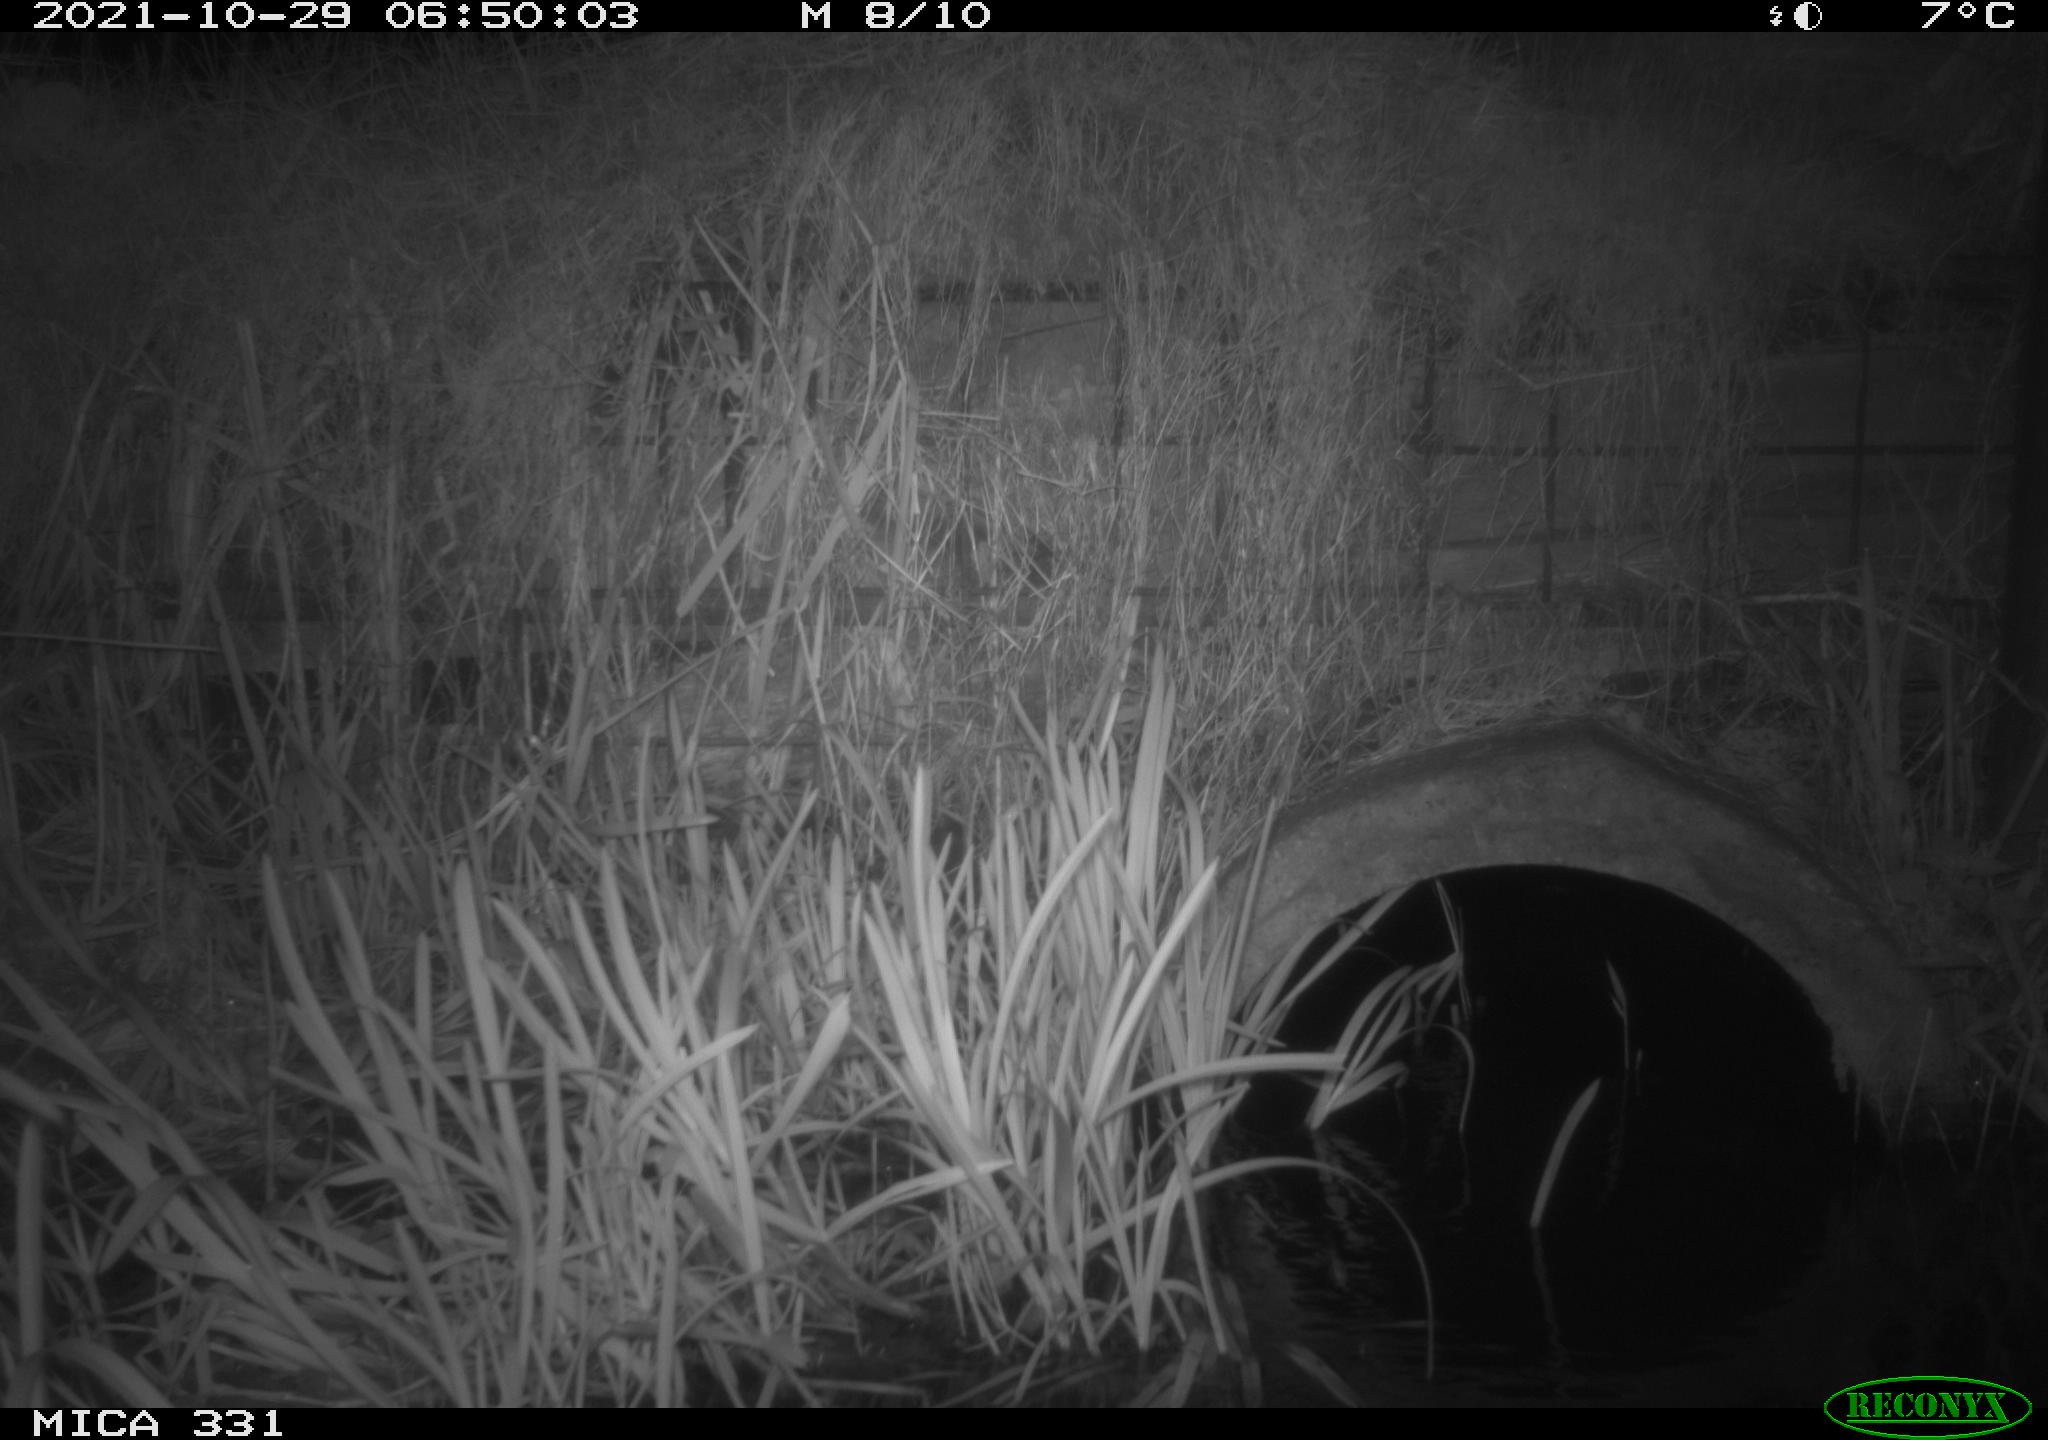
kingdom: Animalia
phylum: Chordata
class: Mammalia
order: Rodentia
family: Muridae
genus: Rattus
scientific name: Rattus norvegicus
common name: Brown rat
